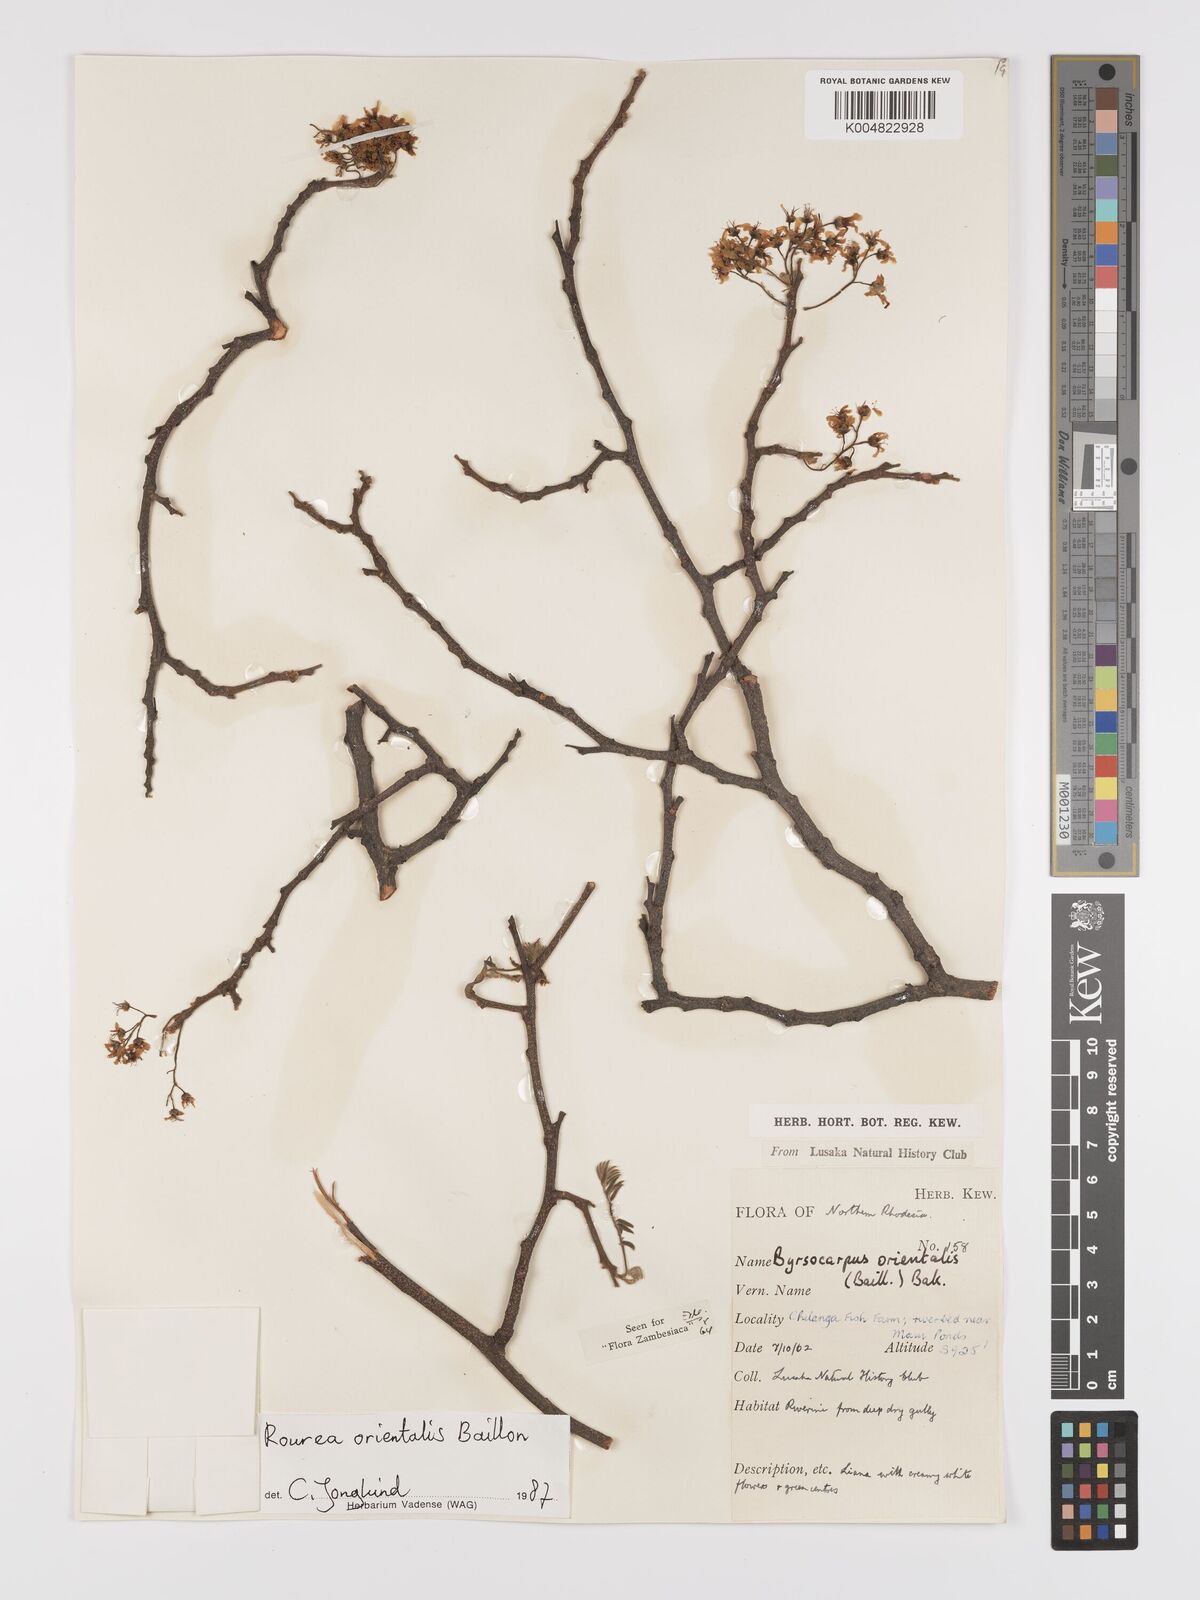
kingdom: Plantae
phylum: Tracheophyta
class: Magnoliopsida
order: Oxalidales
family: Connaraceae
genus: Rourea
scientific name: Rourea orientalis
